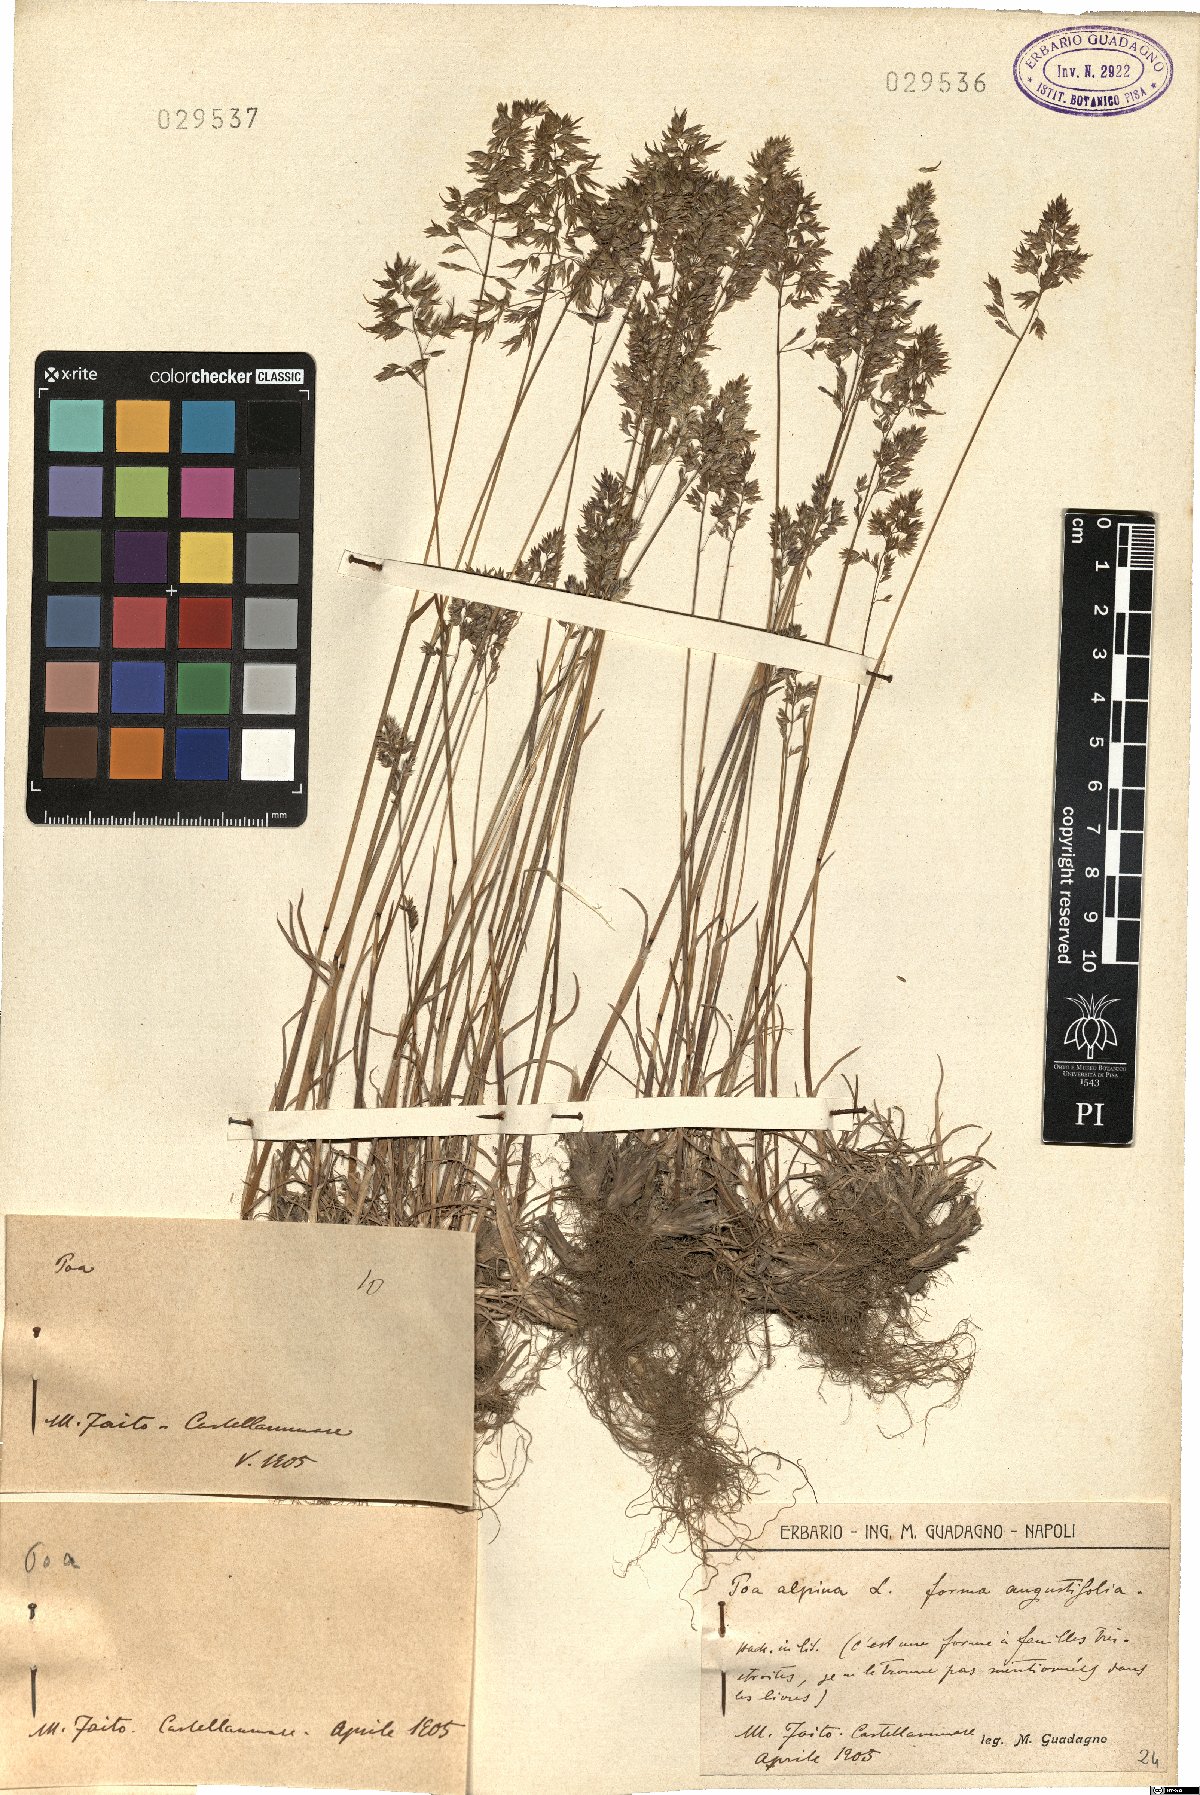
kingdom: Plantae
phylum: Tracheophyta
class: Liliopsida
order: Poales
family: Poaceae
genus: Poa
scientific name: Poa alpina
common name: Alpine bluegrass
